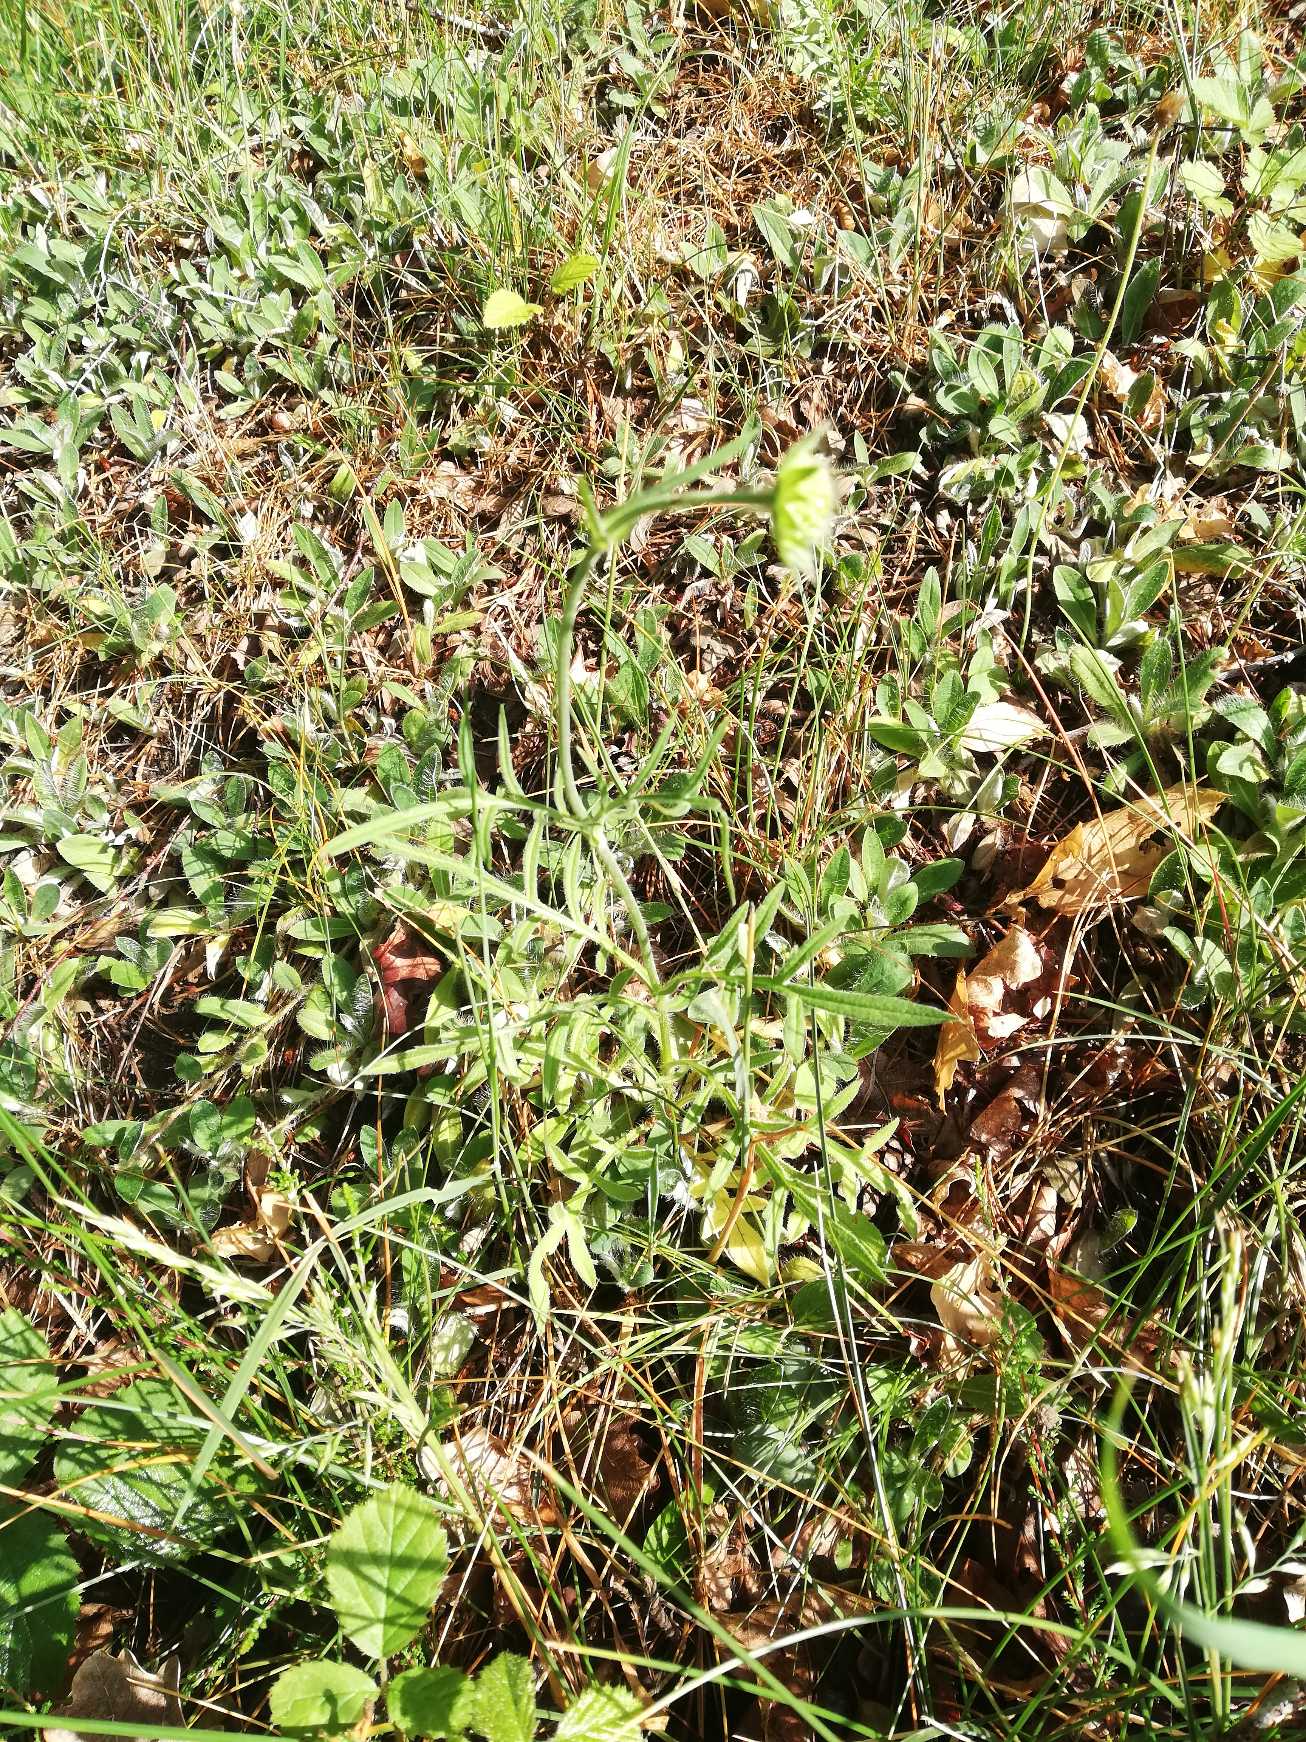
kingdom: Plantae
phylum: Tracheophyta
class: Magnoliopsida
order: Dipsacales
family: Caprifoliaceae
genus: Knautia
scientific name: Knautia arvensis
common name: Blåhat
